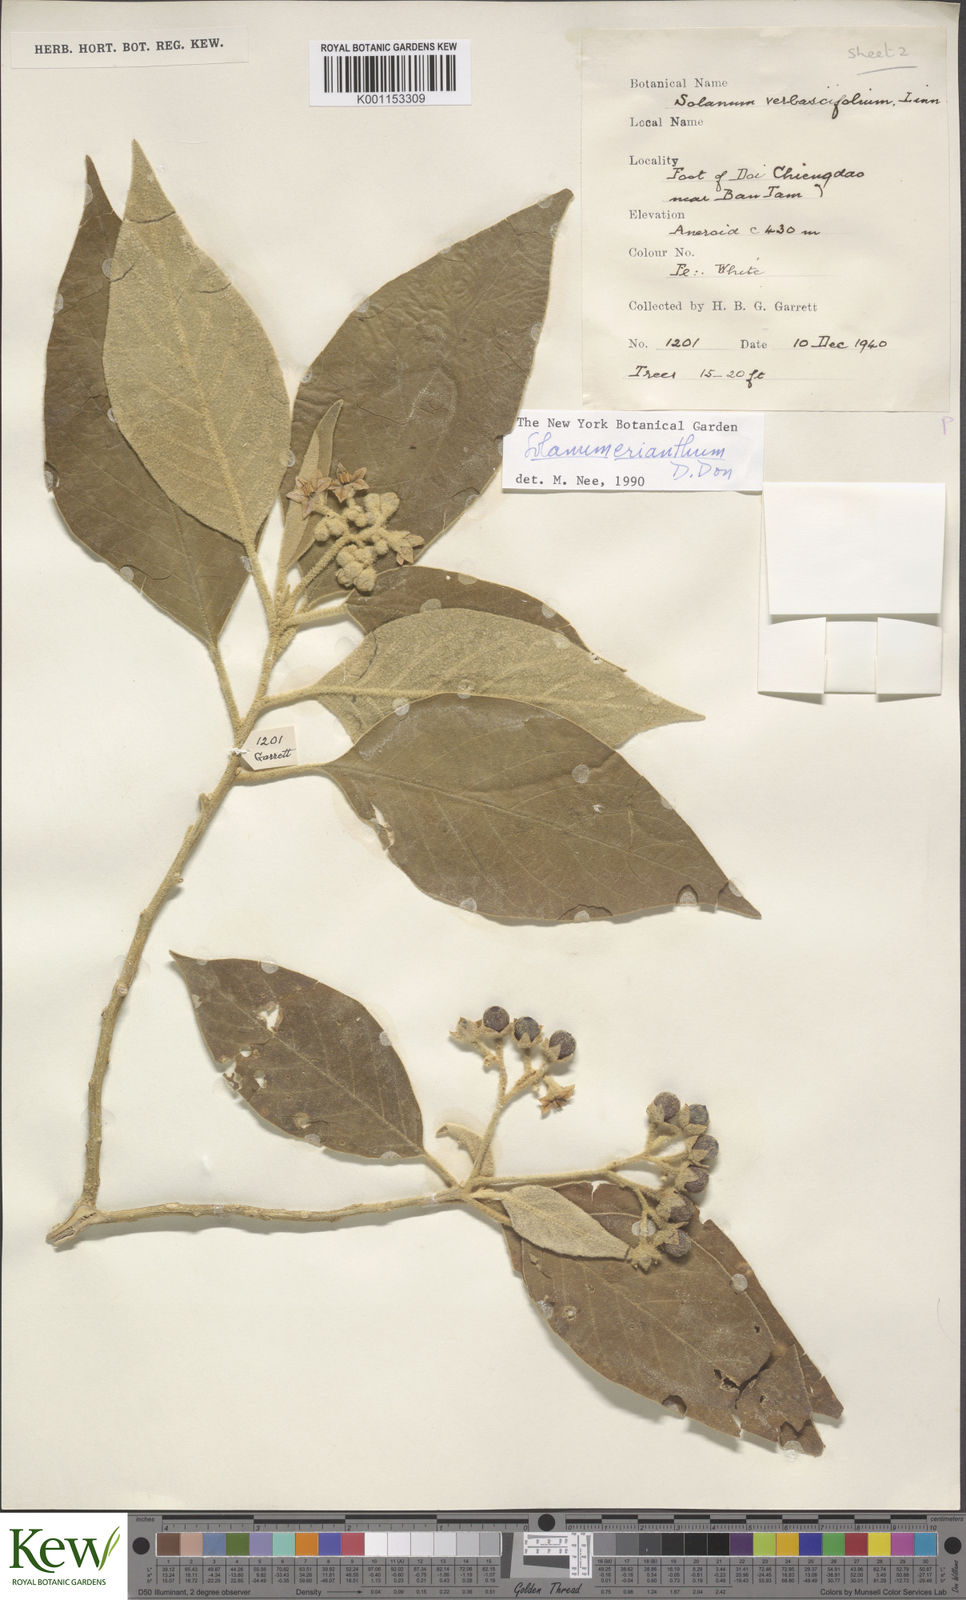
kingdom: Plantae
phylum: Tracheophyta
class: Magnoliopsida
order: Solanales
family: Solanaceae
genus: Solanum
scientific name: Solanum erianthum
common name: Tobacco-tree
